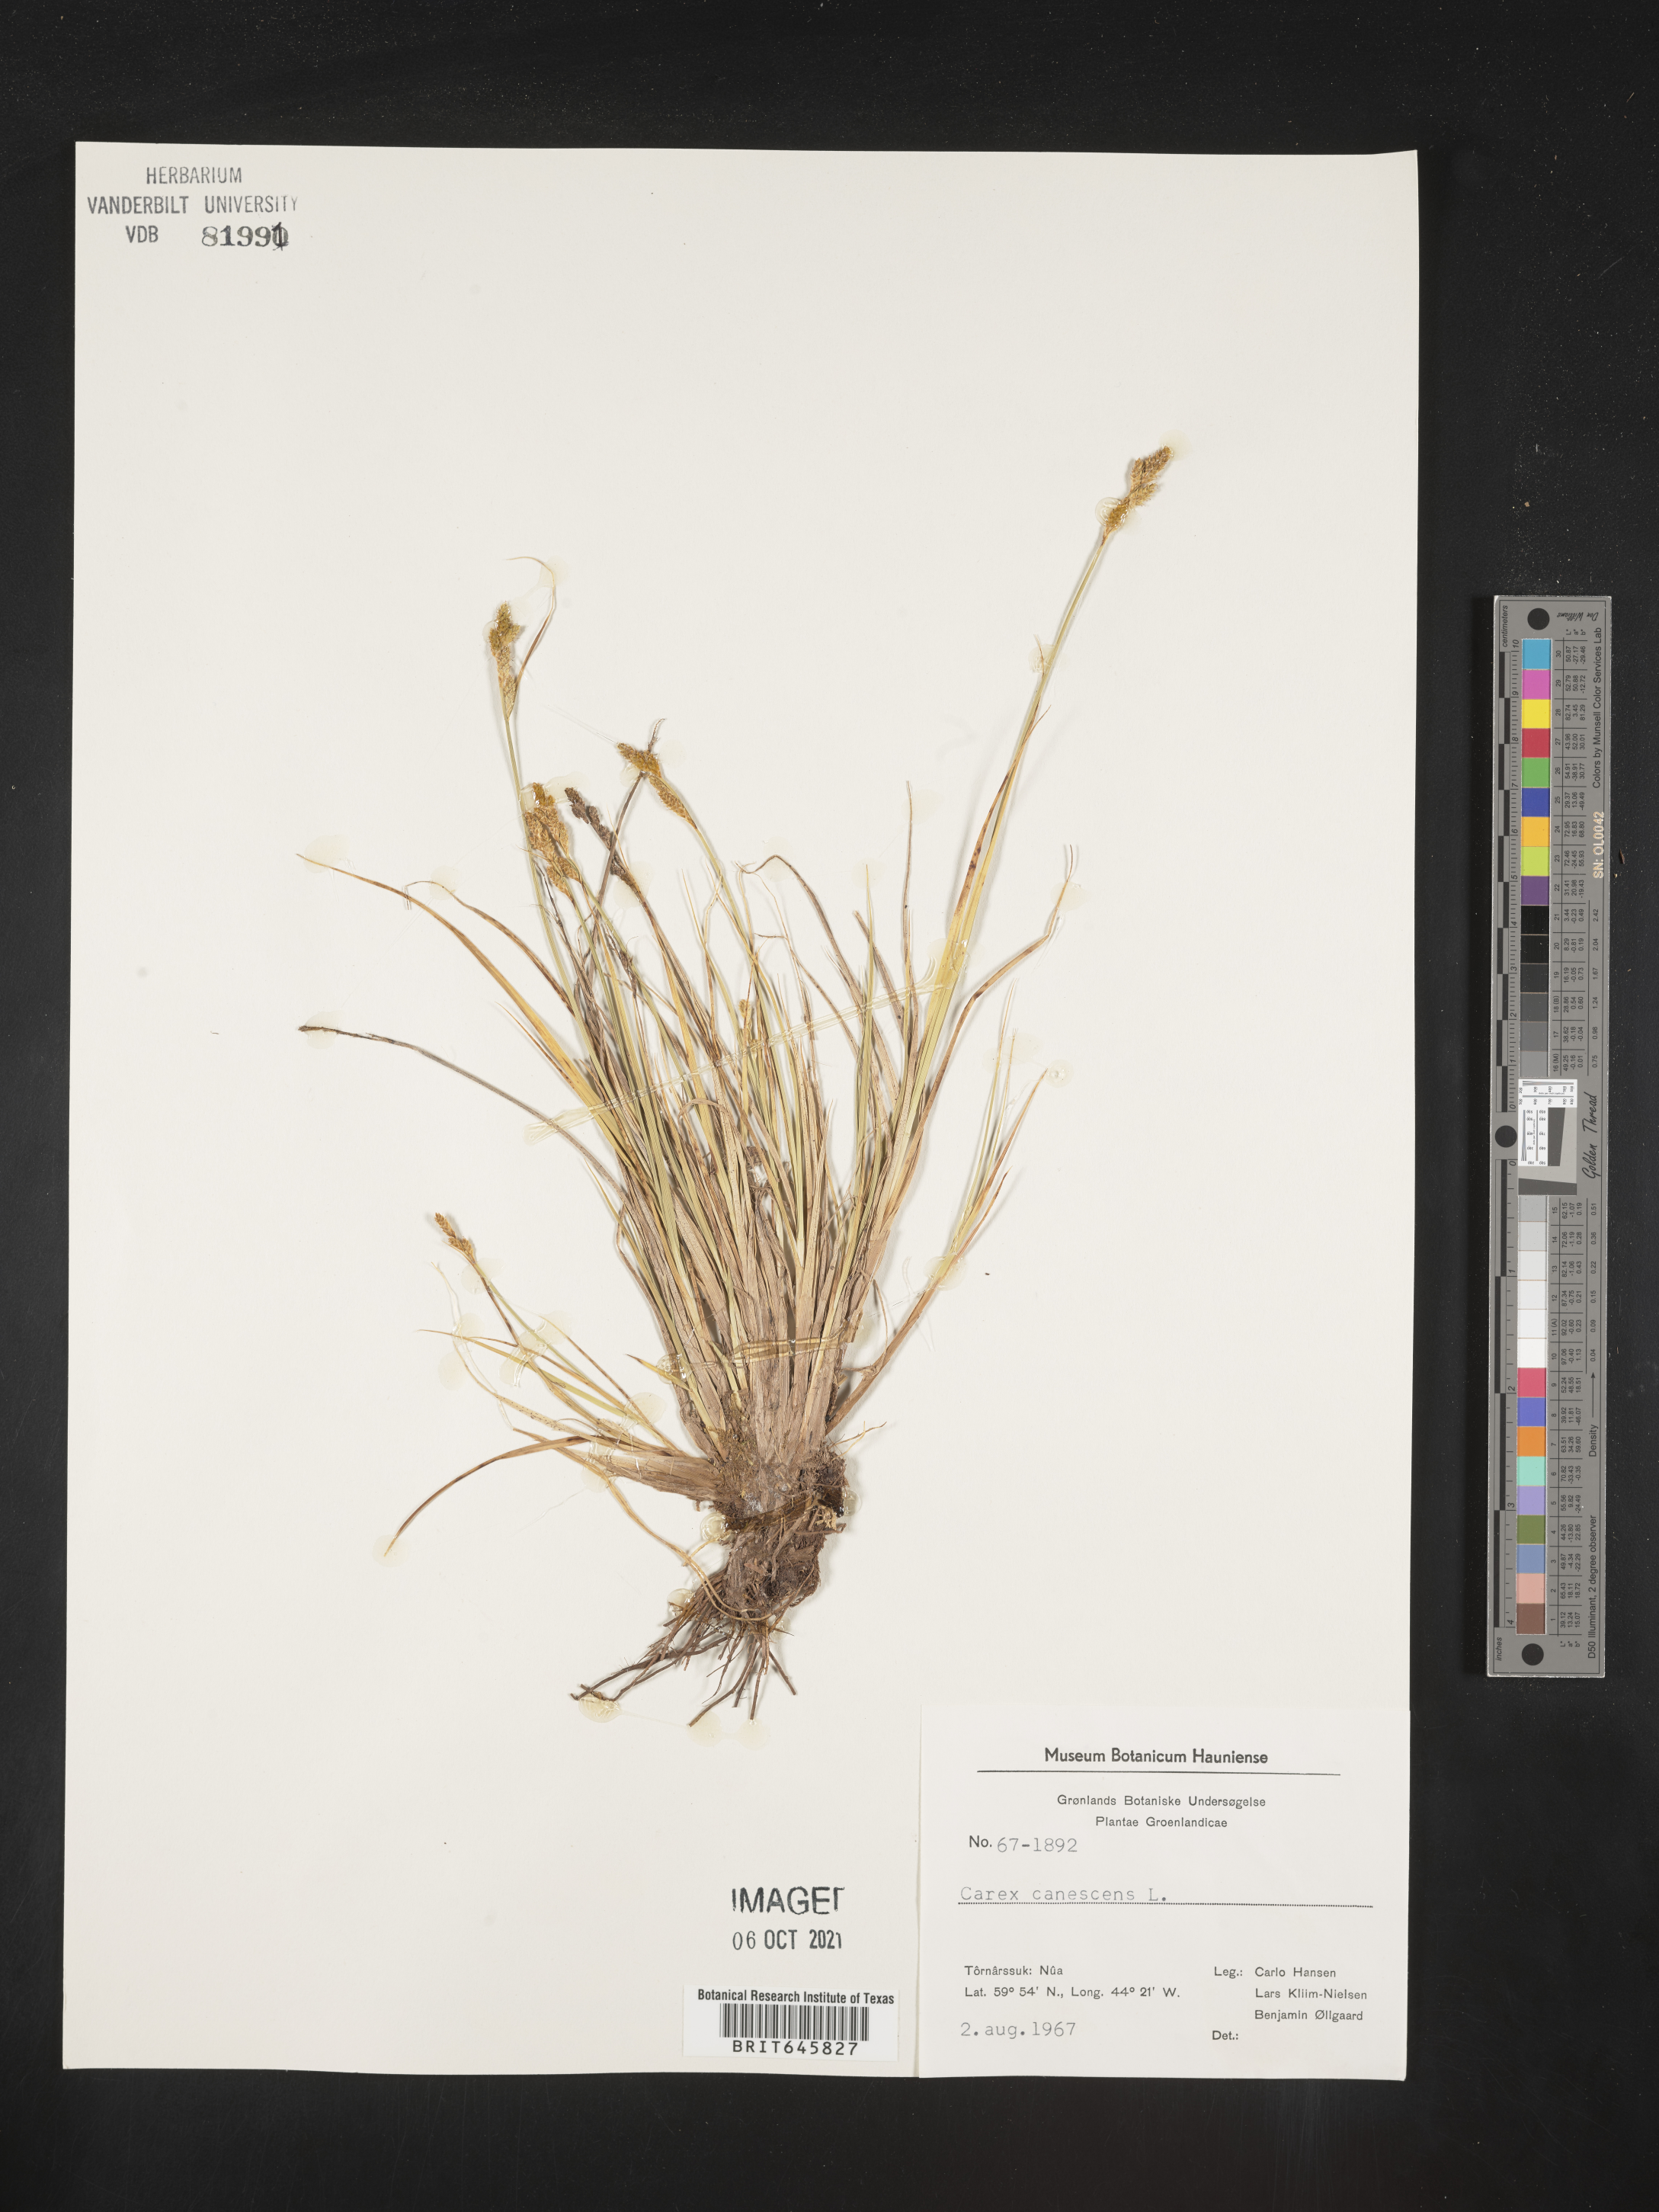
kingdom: Plantae
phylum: Tracheophyta
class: Liliopsida
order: Poales
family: Cyperaceae
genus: Carex
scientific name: Carex canescens
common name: White sedge
